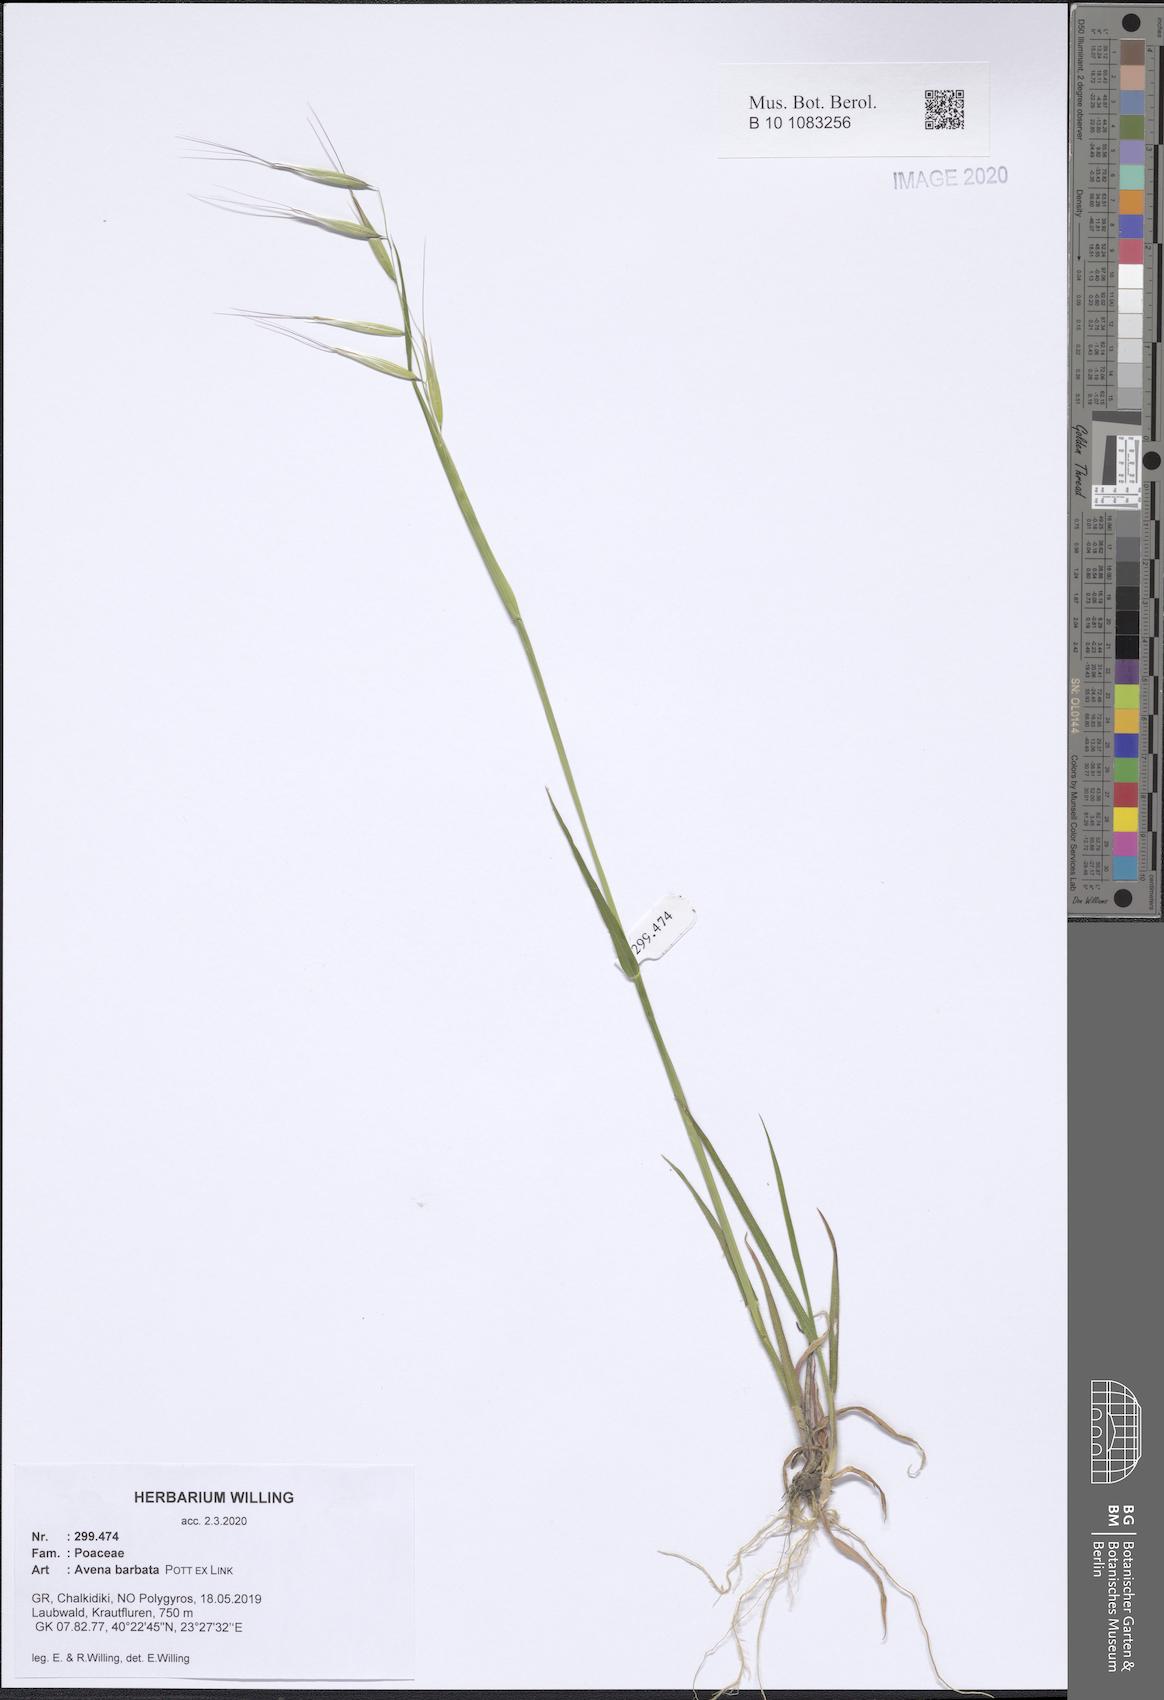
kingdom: Plantae
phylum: Tracheophyta
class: Liliopsida
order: Poales
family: Poaceae
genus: Avena
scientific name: Avena barbata
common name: Slender oat
